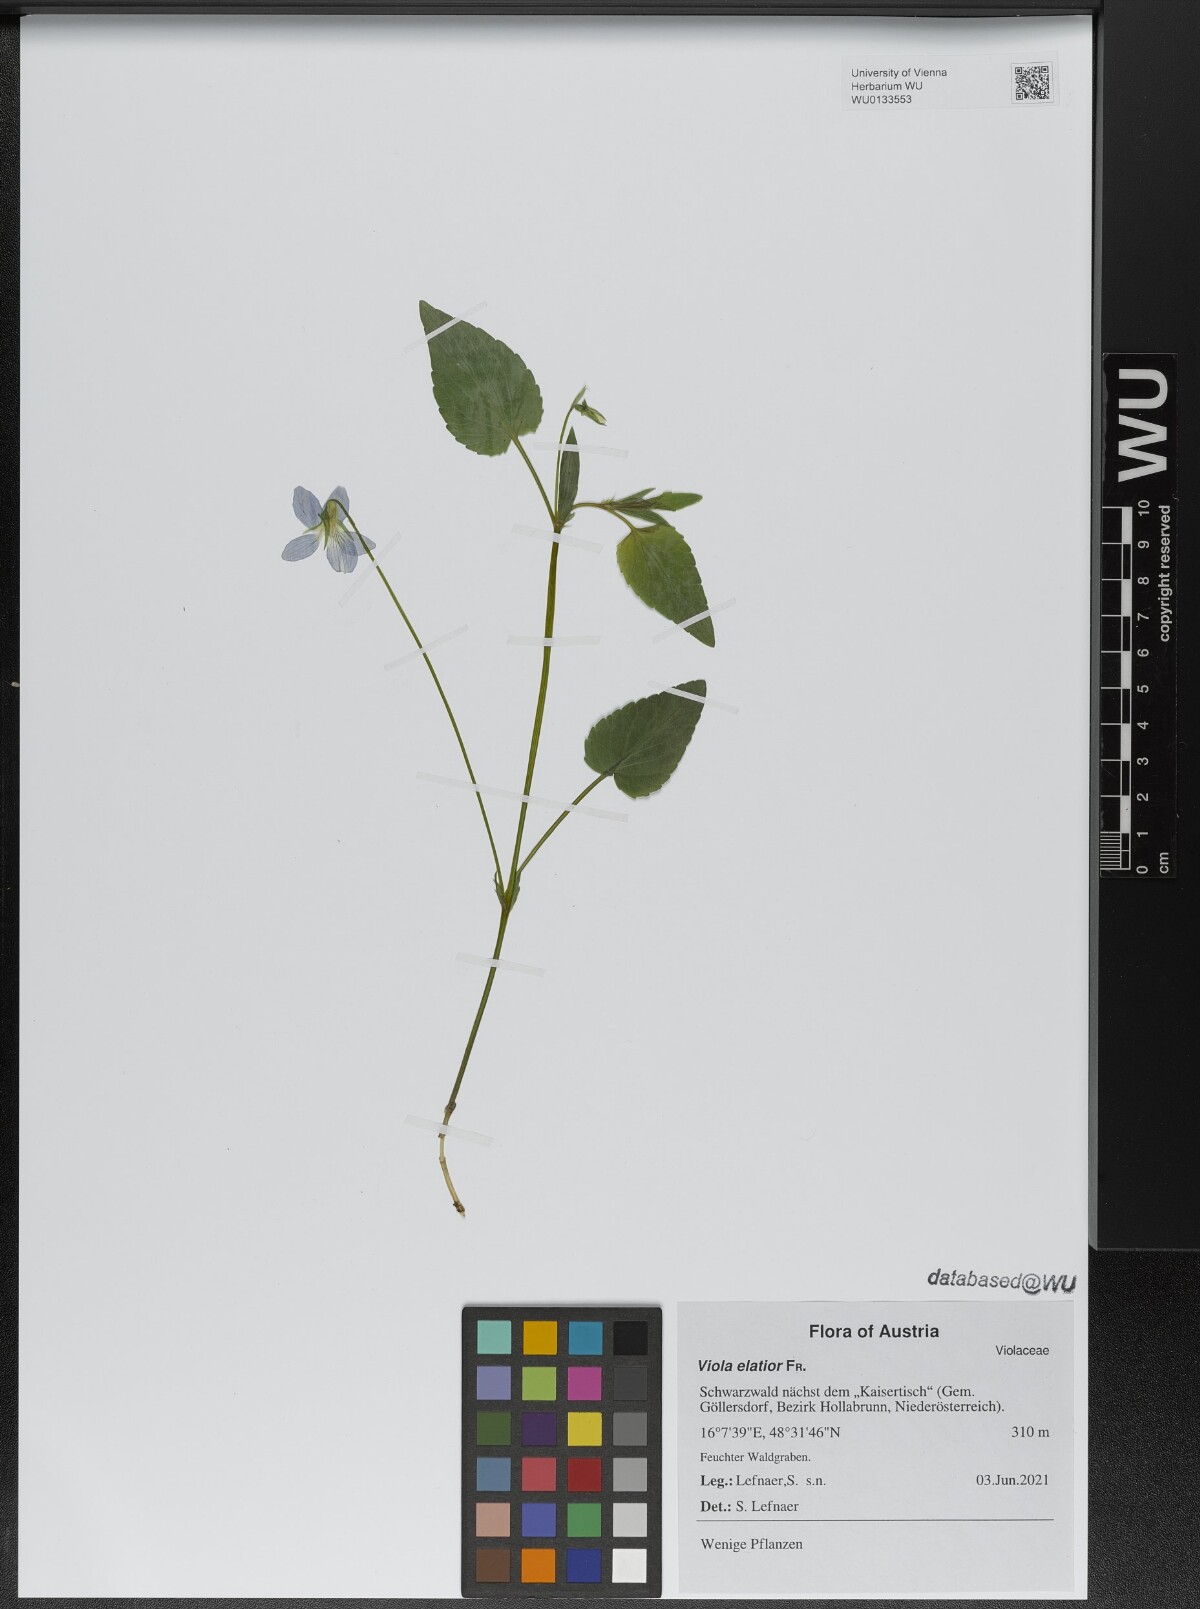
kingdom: Plantae
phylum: Tracheophyta
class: Magnoliopsida
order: Malpighiales
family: Violaceae
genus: Viola
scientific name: Viola elatior
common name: Tall violet
